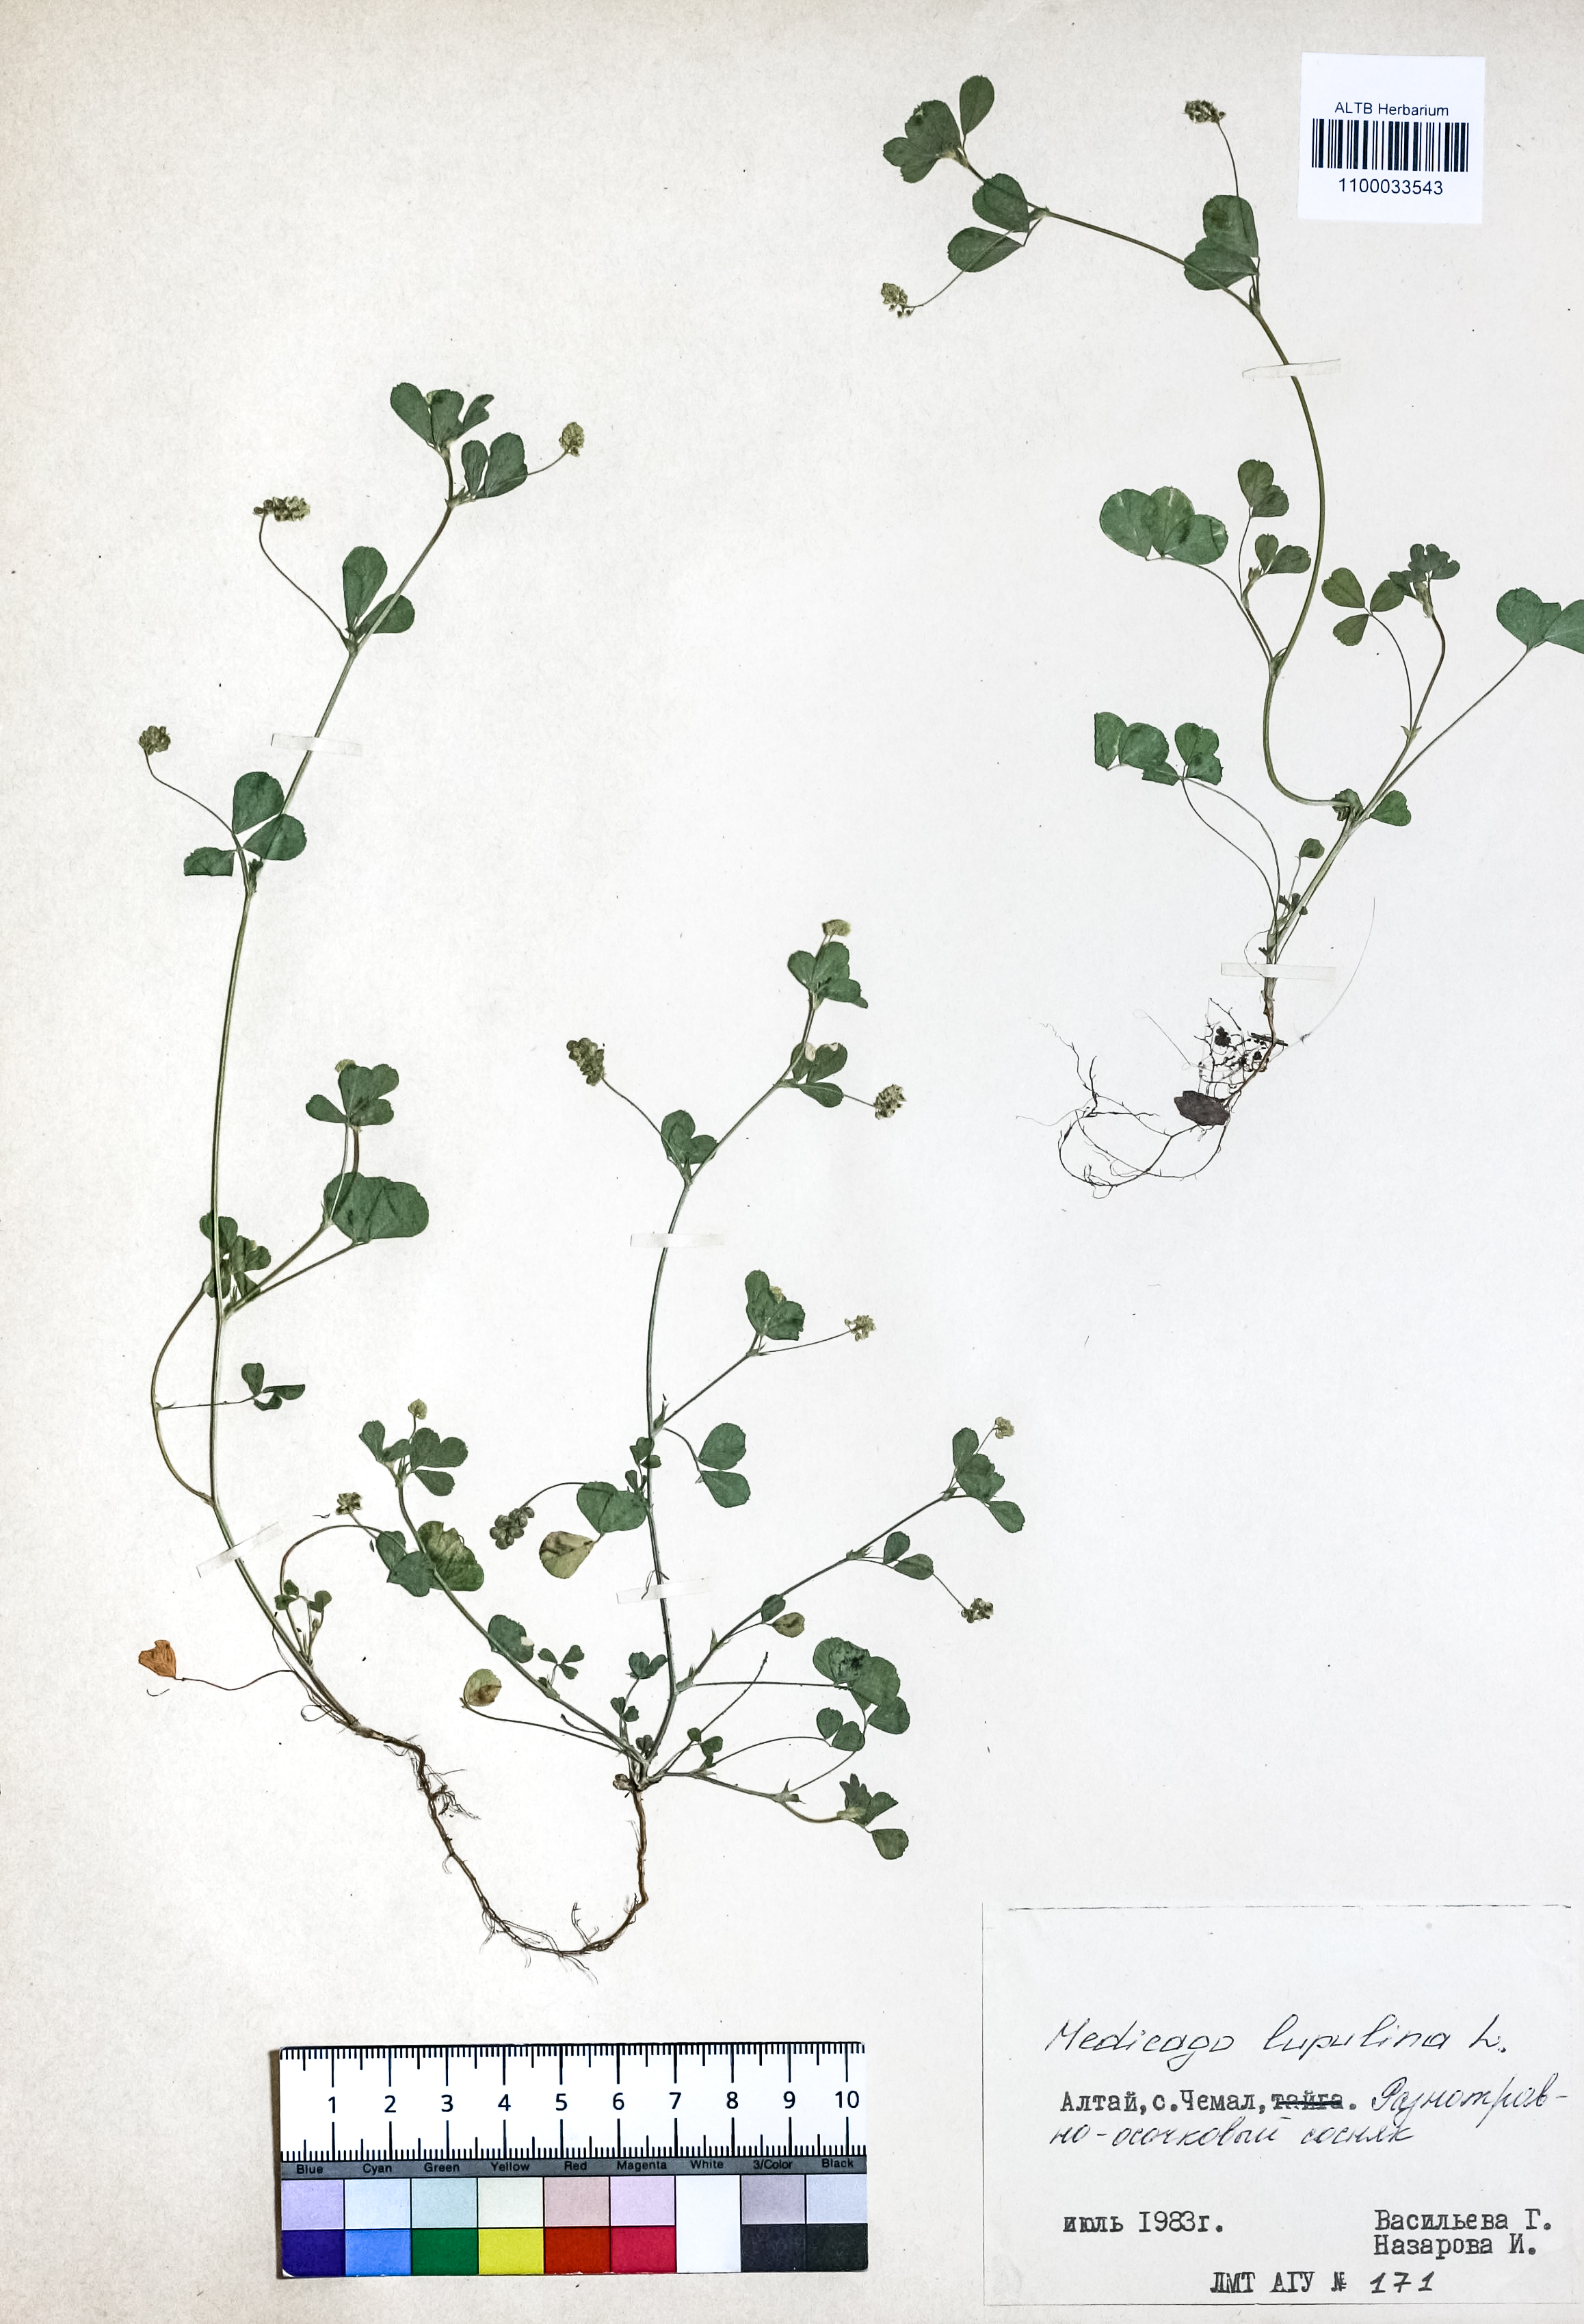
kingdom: Plantae
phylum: Tracheophyta
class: Magnoliopsida
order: Fabales
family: Fabaceae
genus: Medicago
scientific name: Medicago lupulina
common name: Black medick
